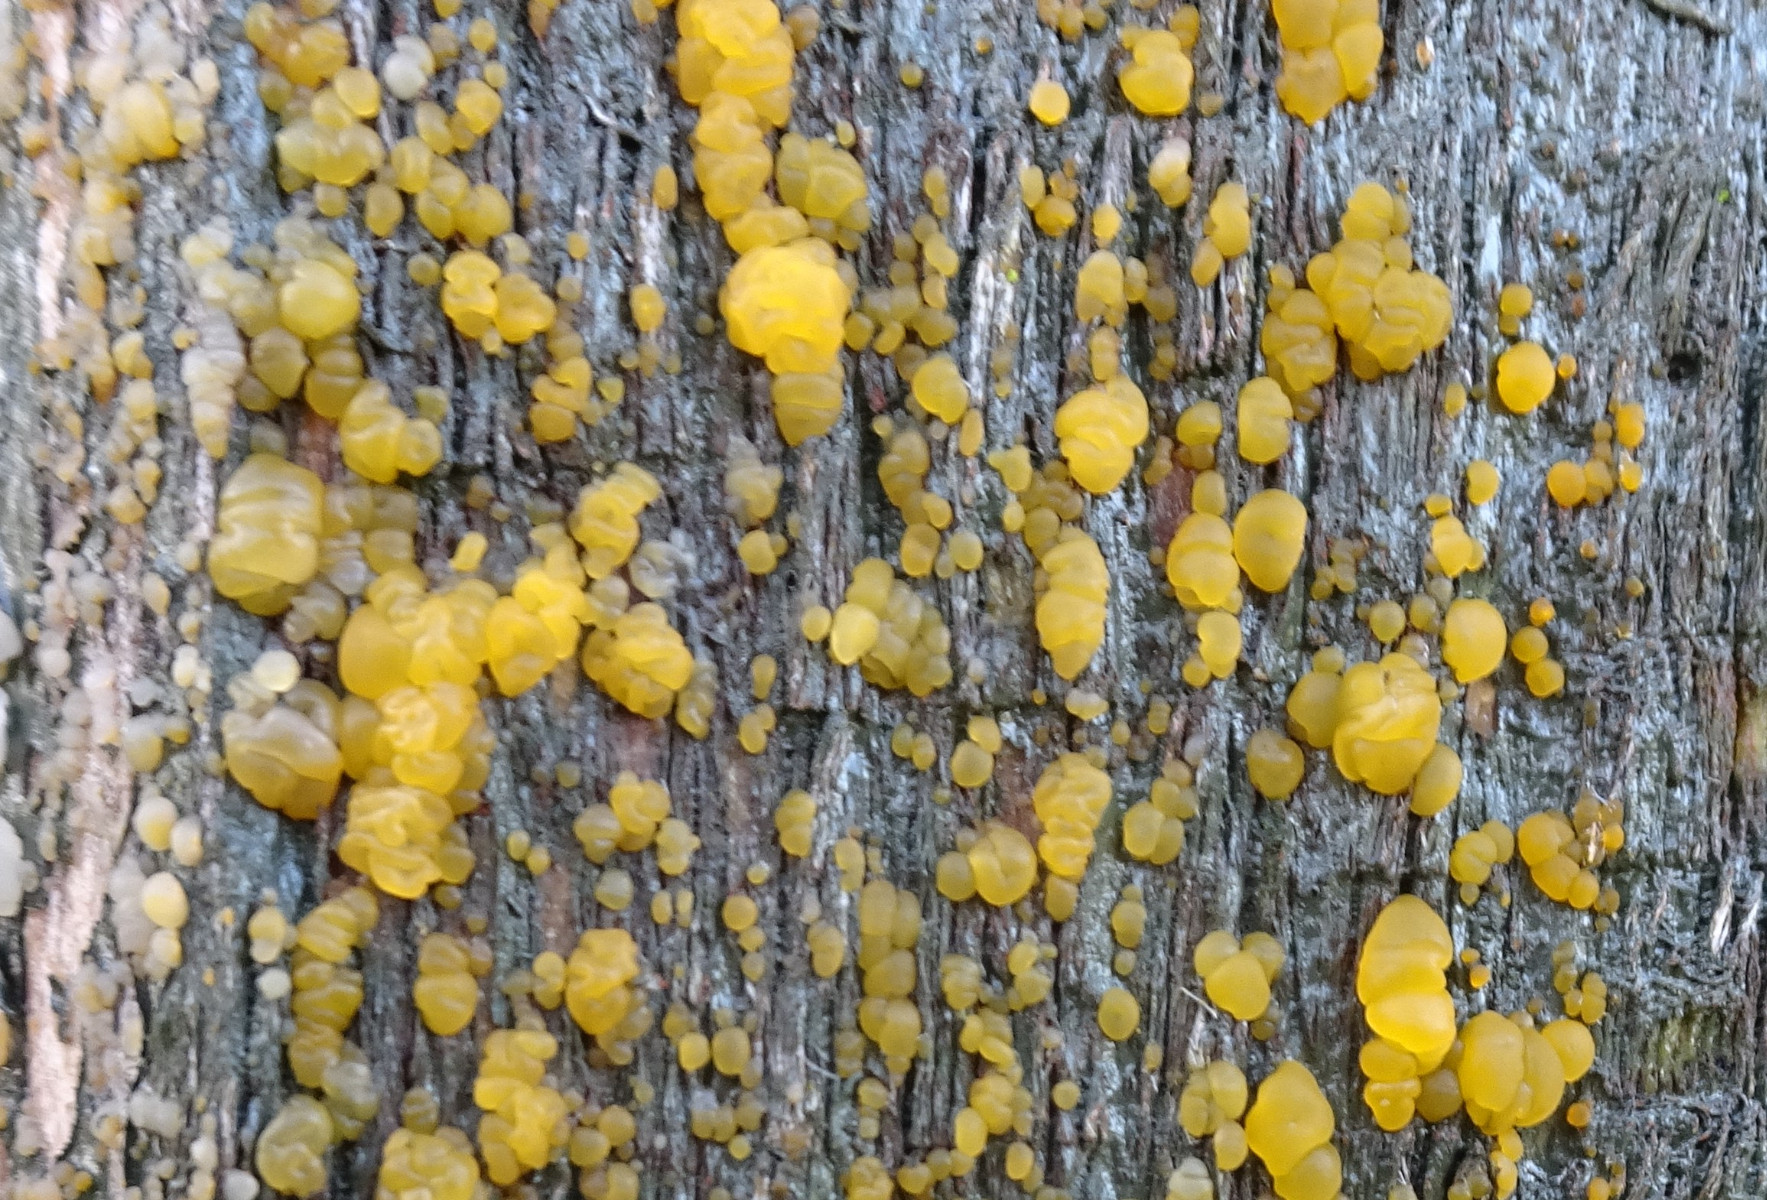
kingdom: Fungi
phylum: Basidiomycota
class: Dacrymycetes
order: Dacrymycetales
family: Dacrymycetaceae
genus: Dacrymyces
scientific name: Dacrymyces
